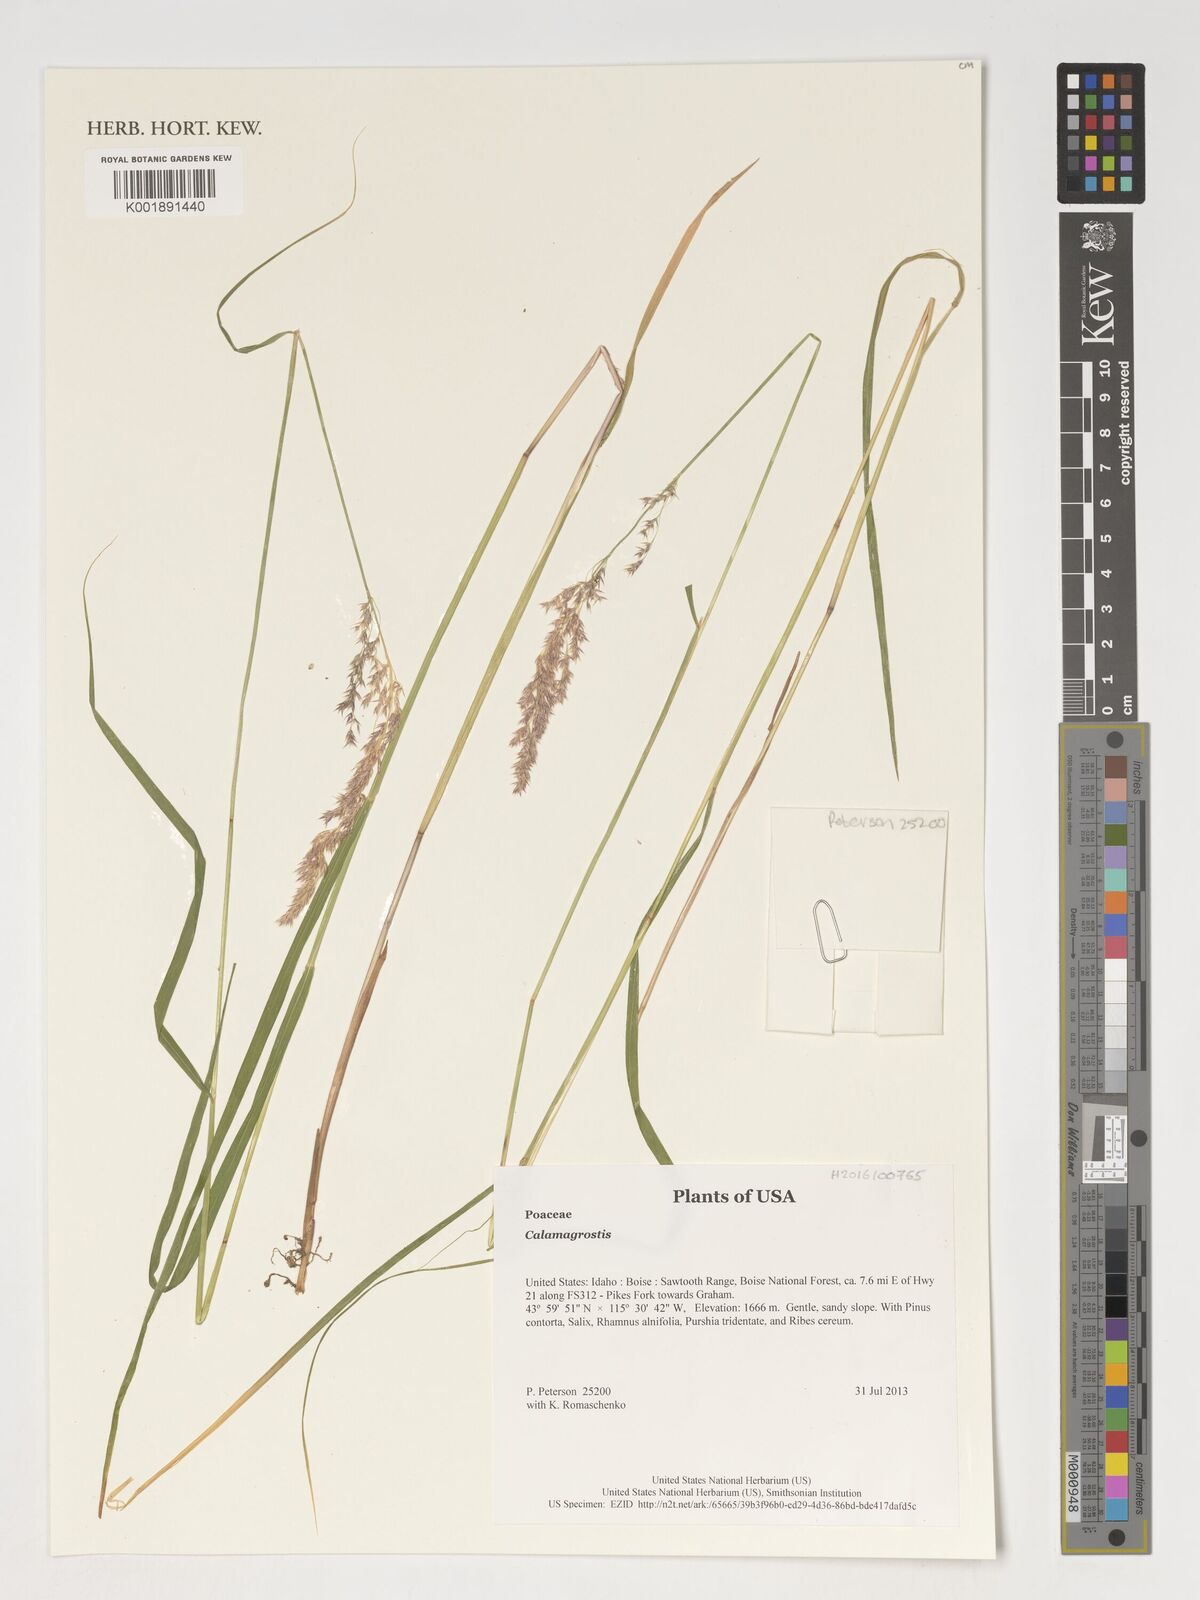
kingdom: Plantae
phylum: Tracheophyta
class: Liliopsida
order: Poales
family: Poaceae
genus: Calamagrostis
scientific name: Calamagrostis
